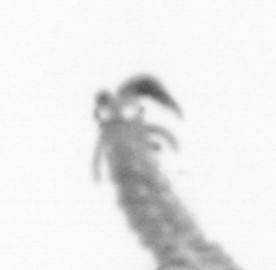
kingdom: Animalia
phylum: Annelida
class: Polychaeta
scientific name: Polychaeta
